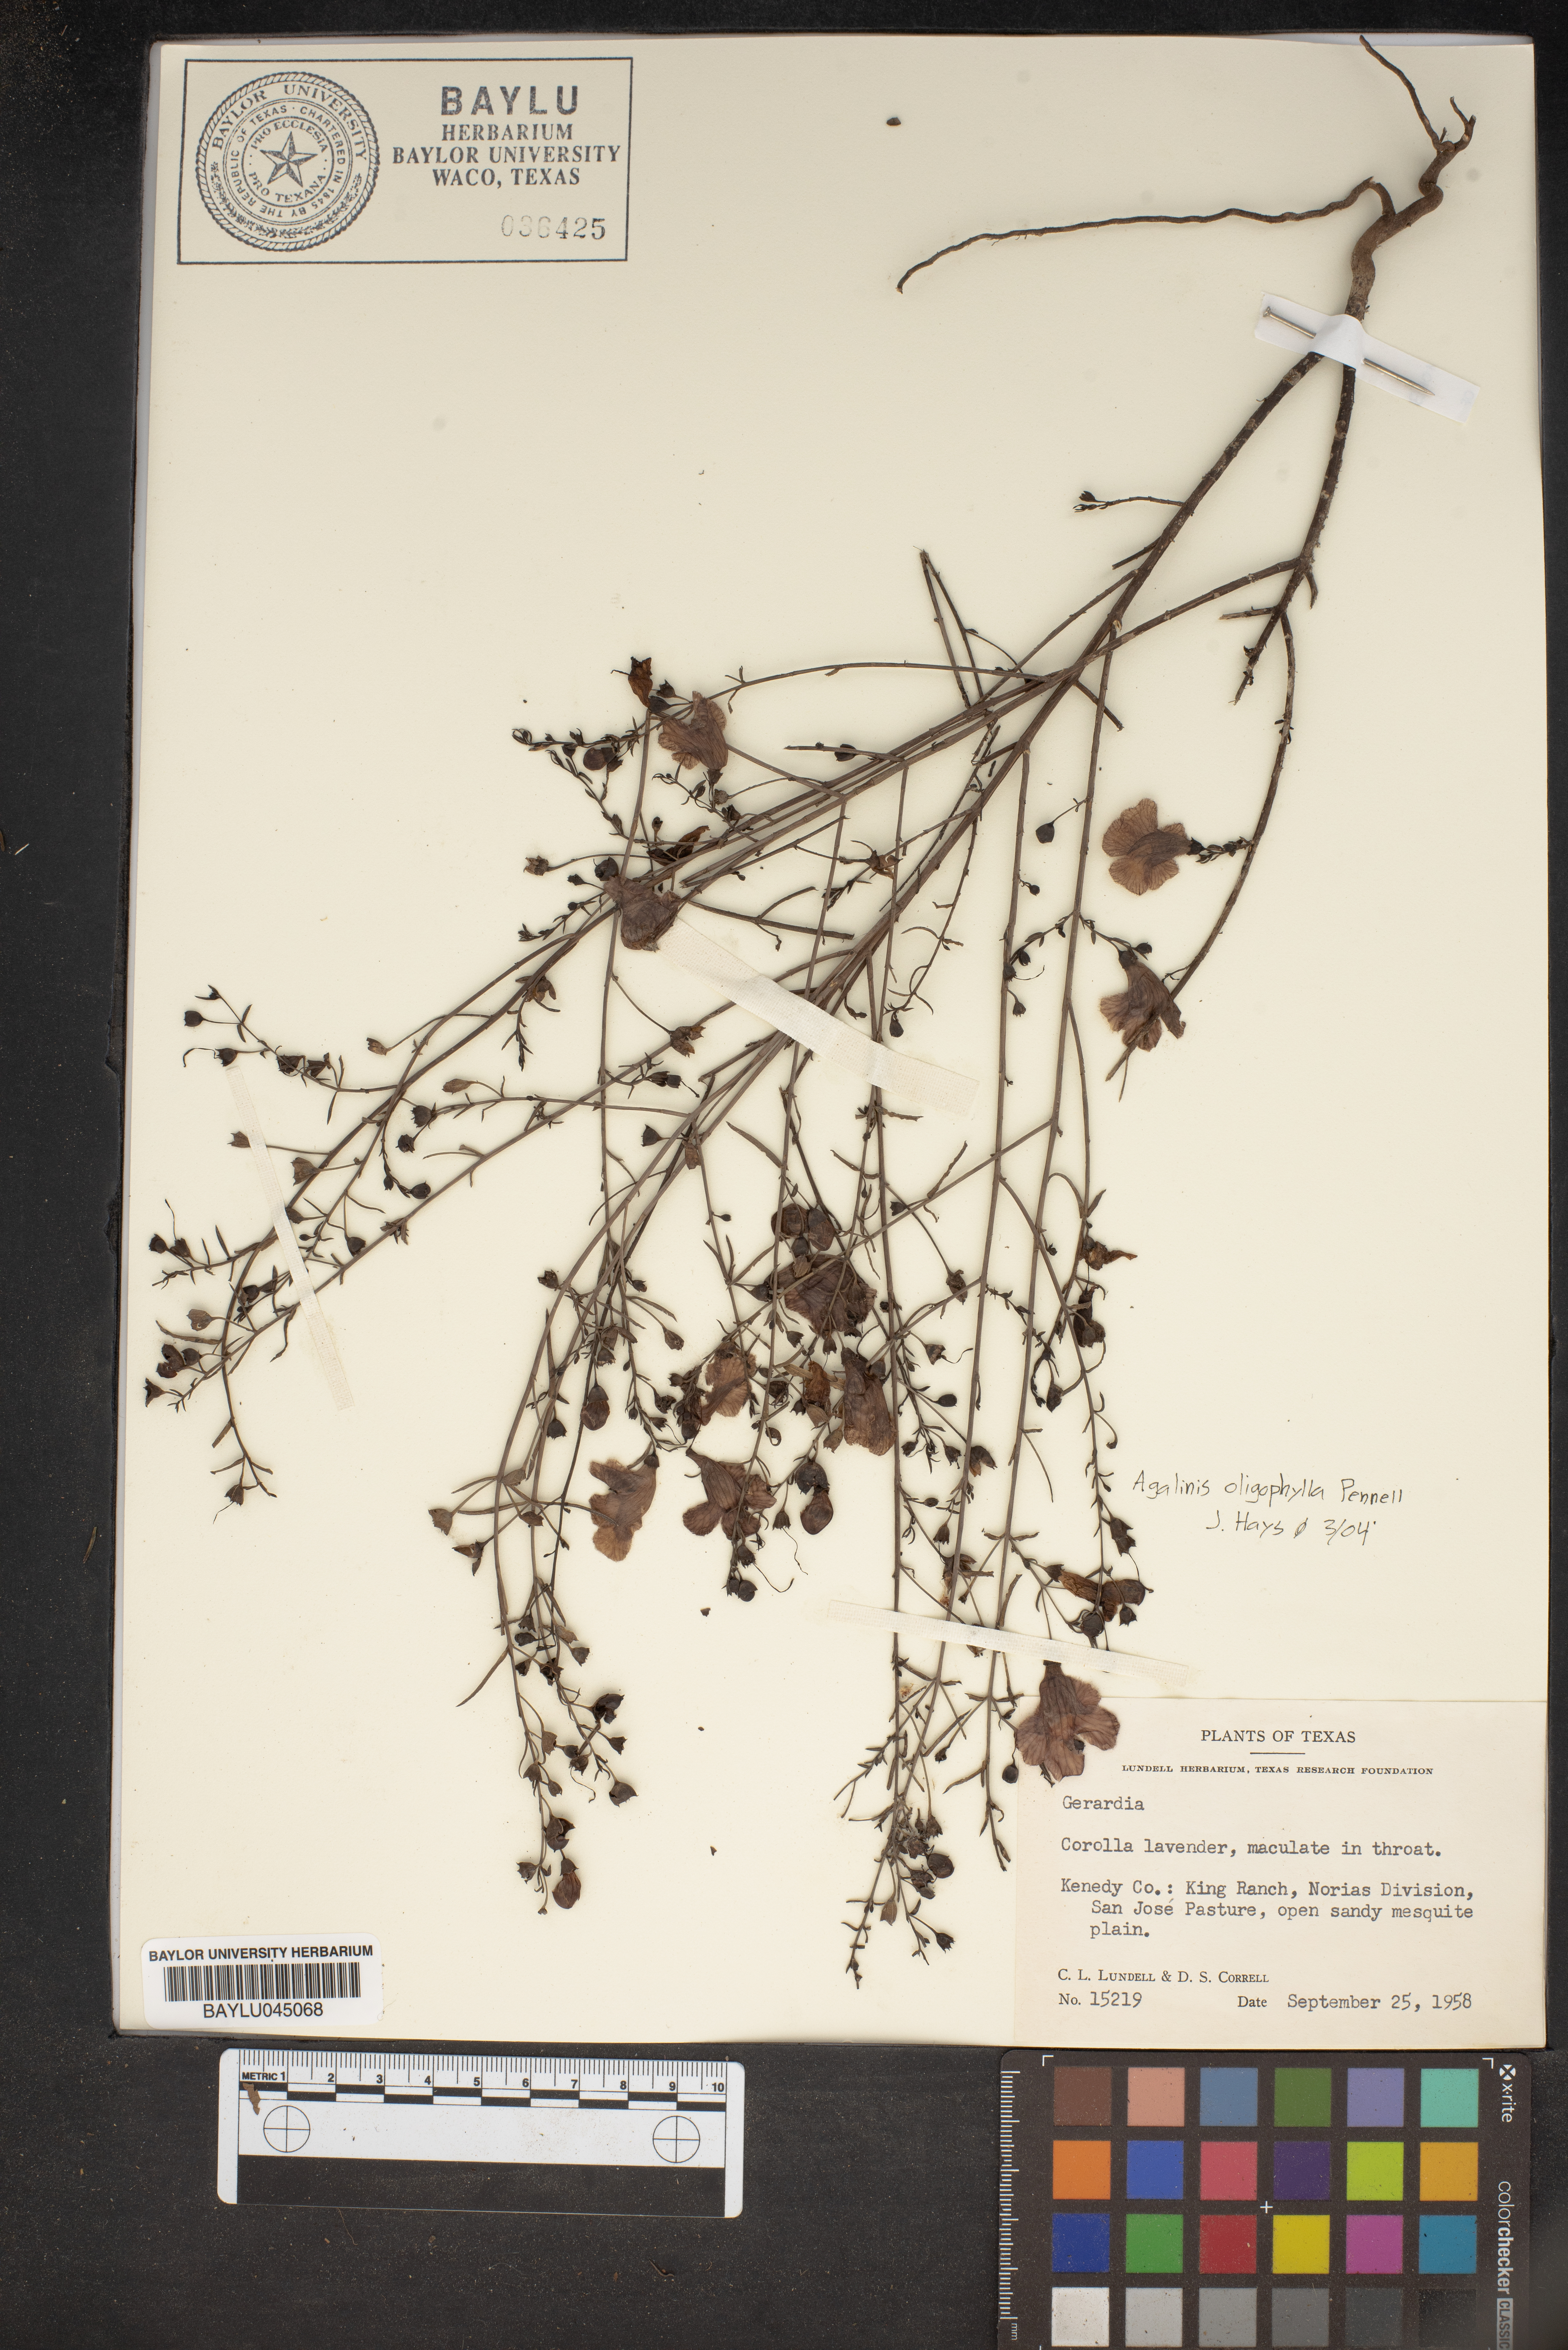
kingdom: Plantae
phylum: Tracheophyta
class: Magnoliopsida
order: Lamiales
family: Orobanchaceae
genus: Agalinis
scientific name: Agalinis
